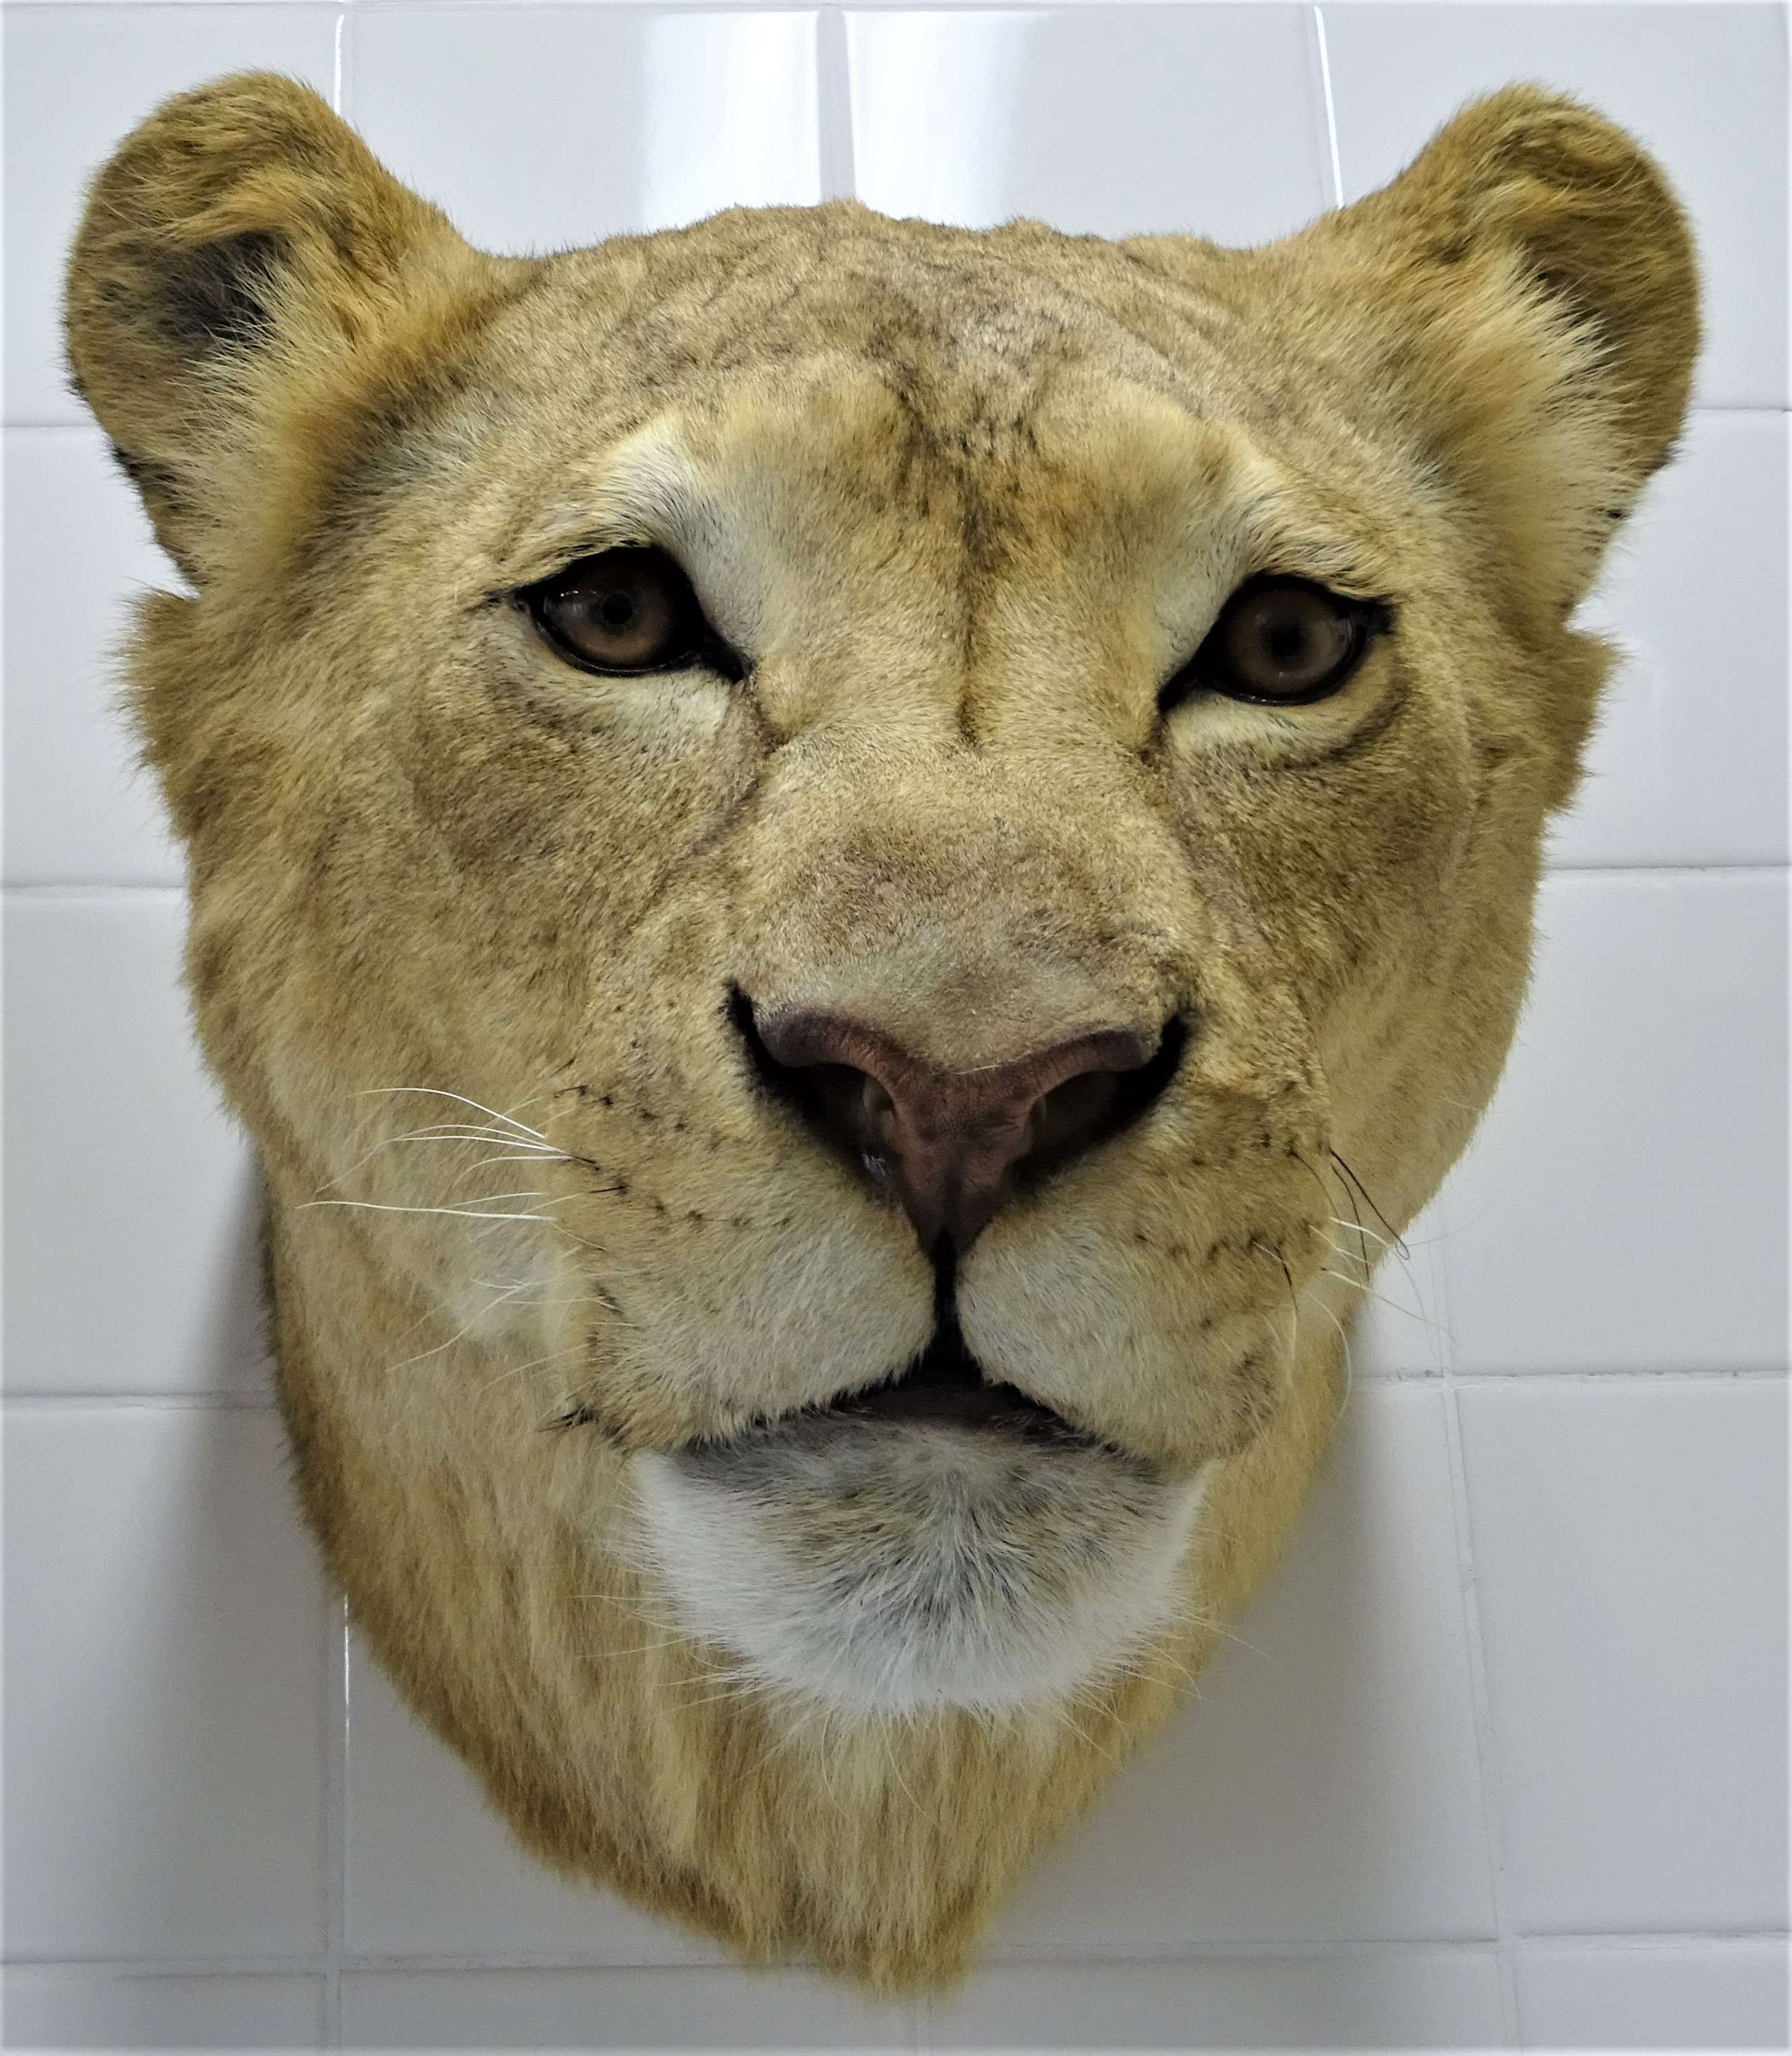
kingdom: Animalia
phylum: Chordata
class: Mammalia
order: Carnivora
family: Felidae
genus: Panthera
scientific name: Panthera leo
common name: Lion
